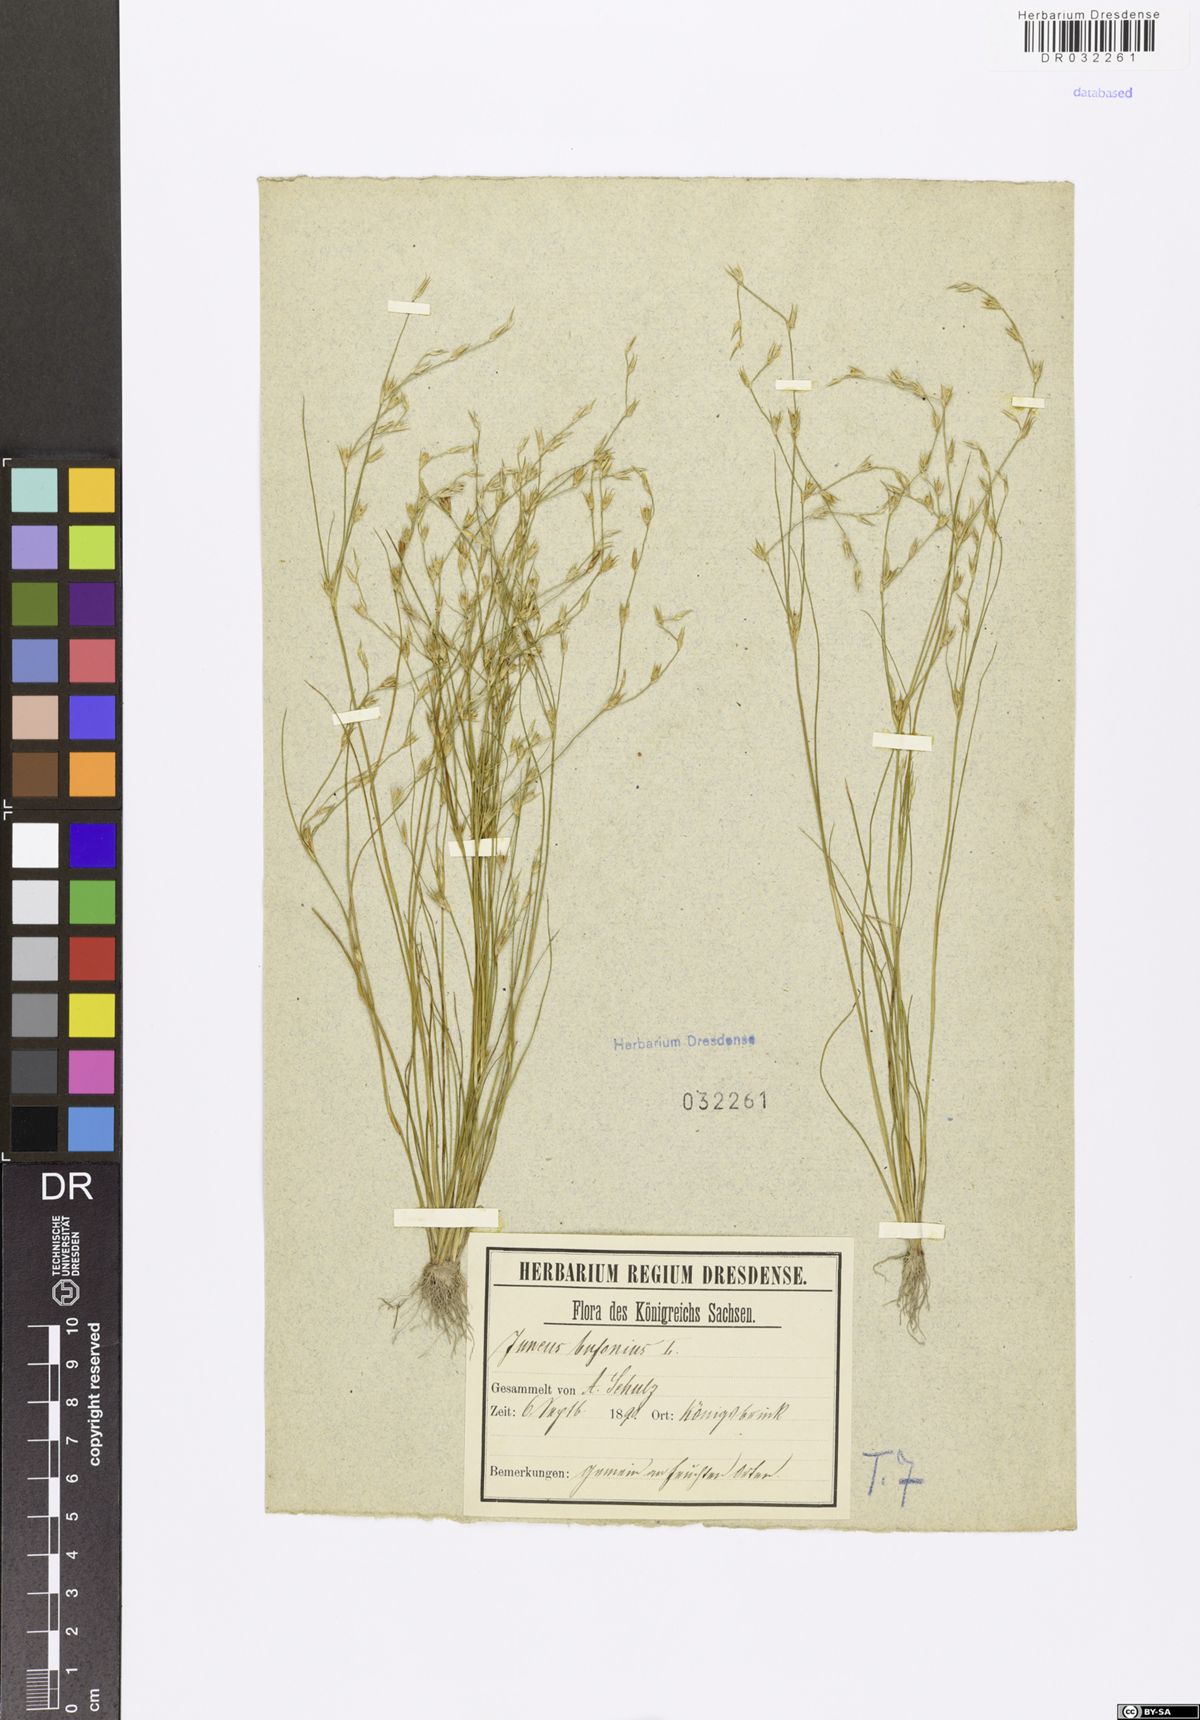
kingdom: Plantae
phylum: Tracheophyta
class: Liliopsida
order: Poales
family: Juncaceae
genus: Juncus
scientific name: Juncus bufonius
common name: Toad rush
